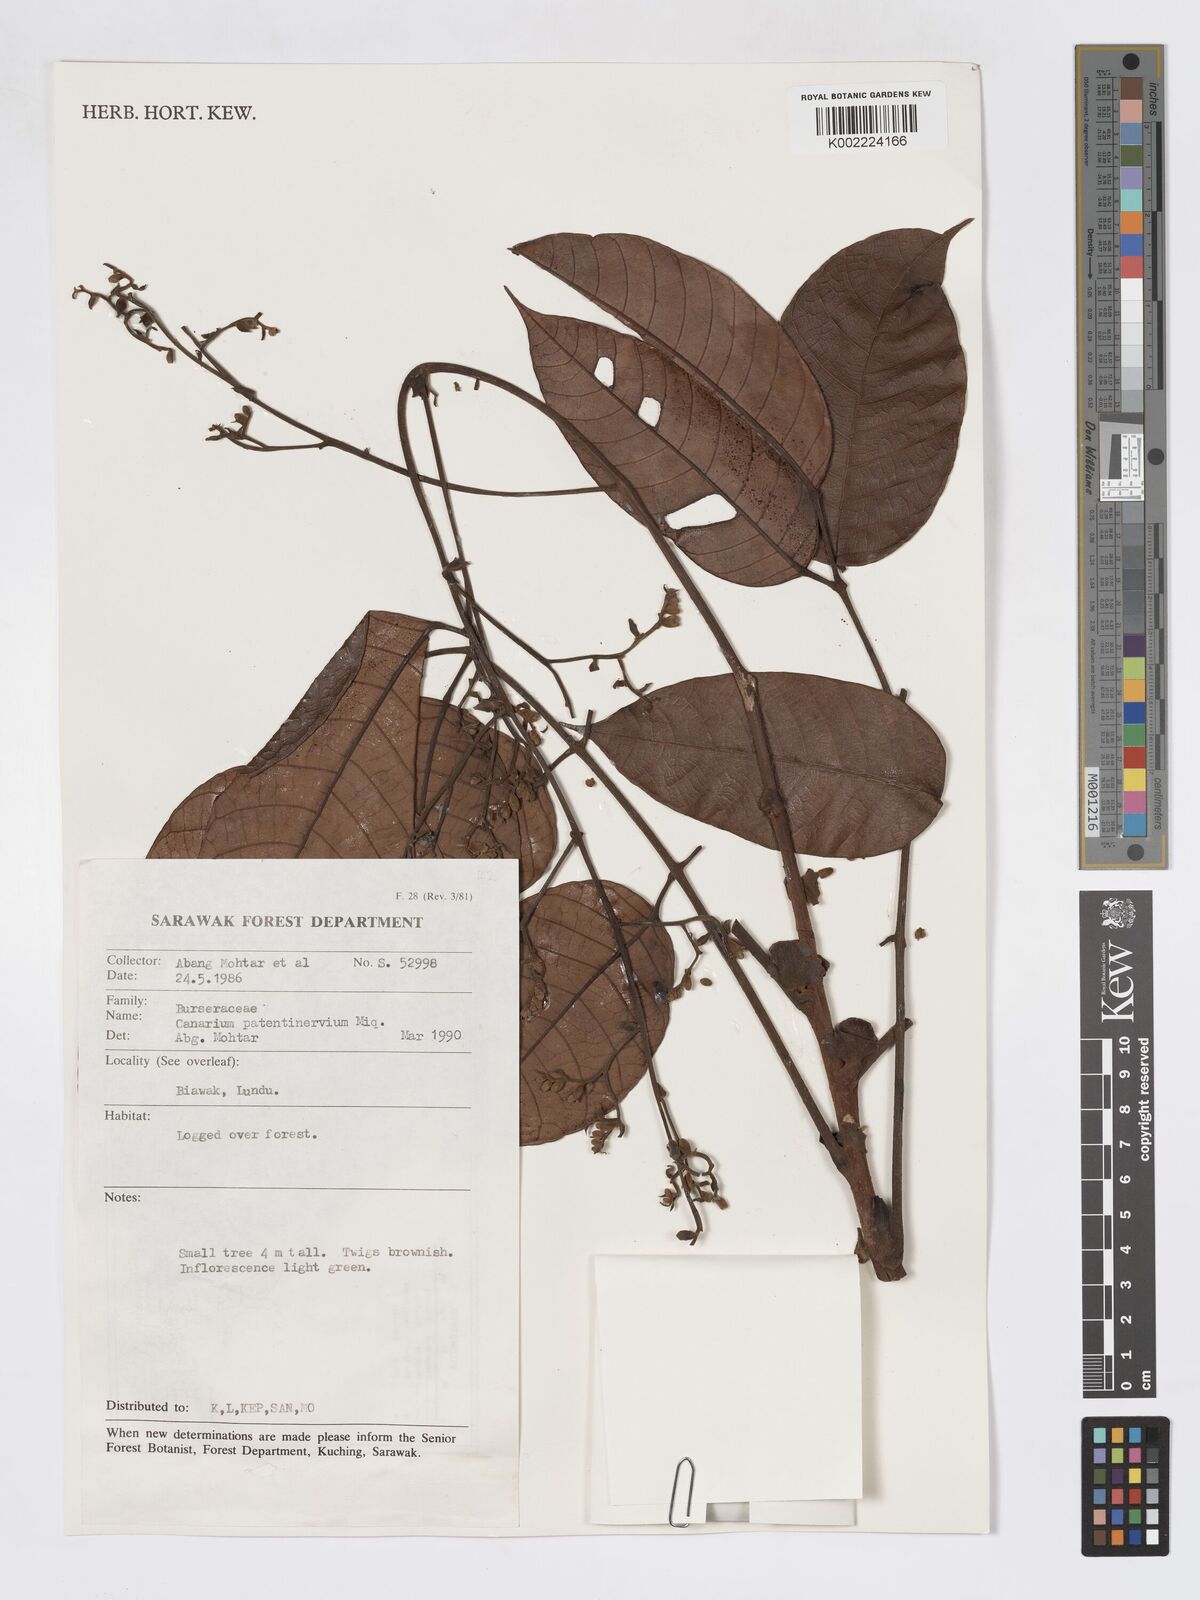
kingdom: Plantae
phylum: Tracheophyta
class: Magnoliopsida
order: Sapindales
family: Burseraceae
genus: Canarium
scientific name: Canarium patentinervium
